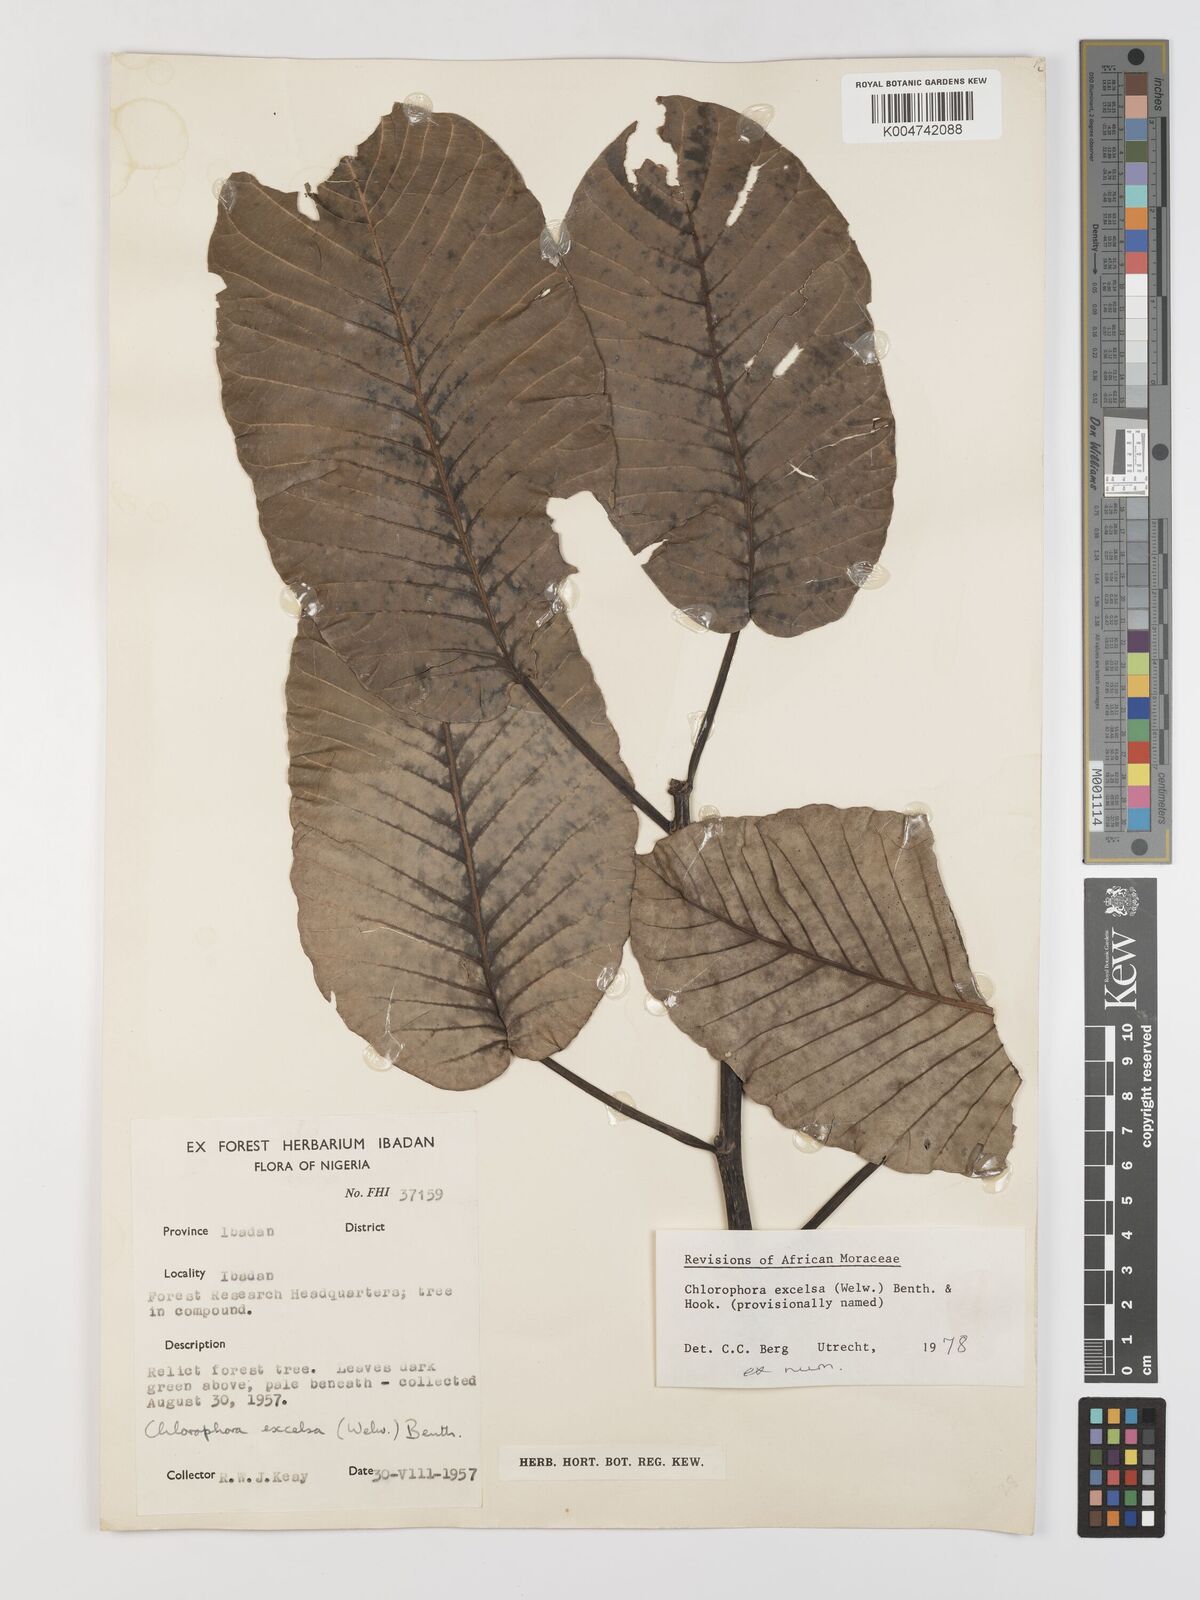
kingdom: Plantae
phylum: Tracheophyta
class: Magnoliopsida
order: Rosales
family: Moraceae
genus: Milicia
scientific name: Milicia excelsa
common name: African teak
